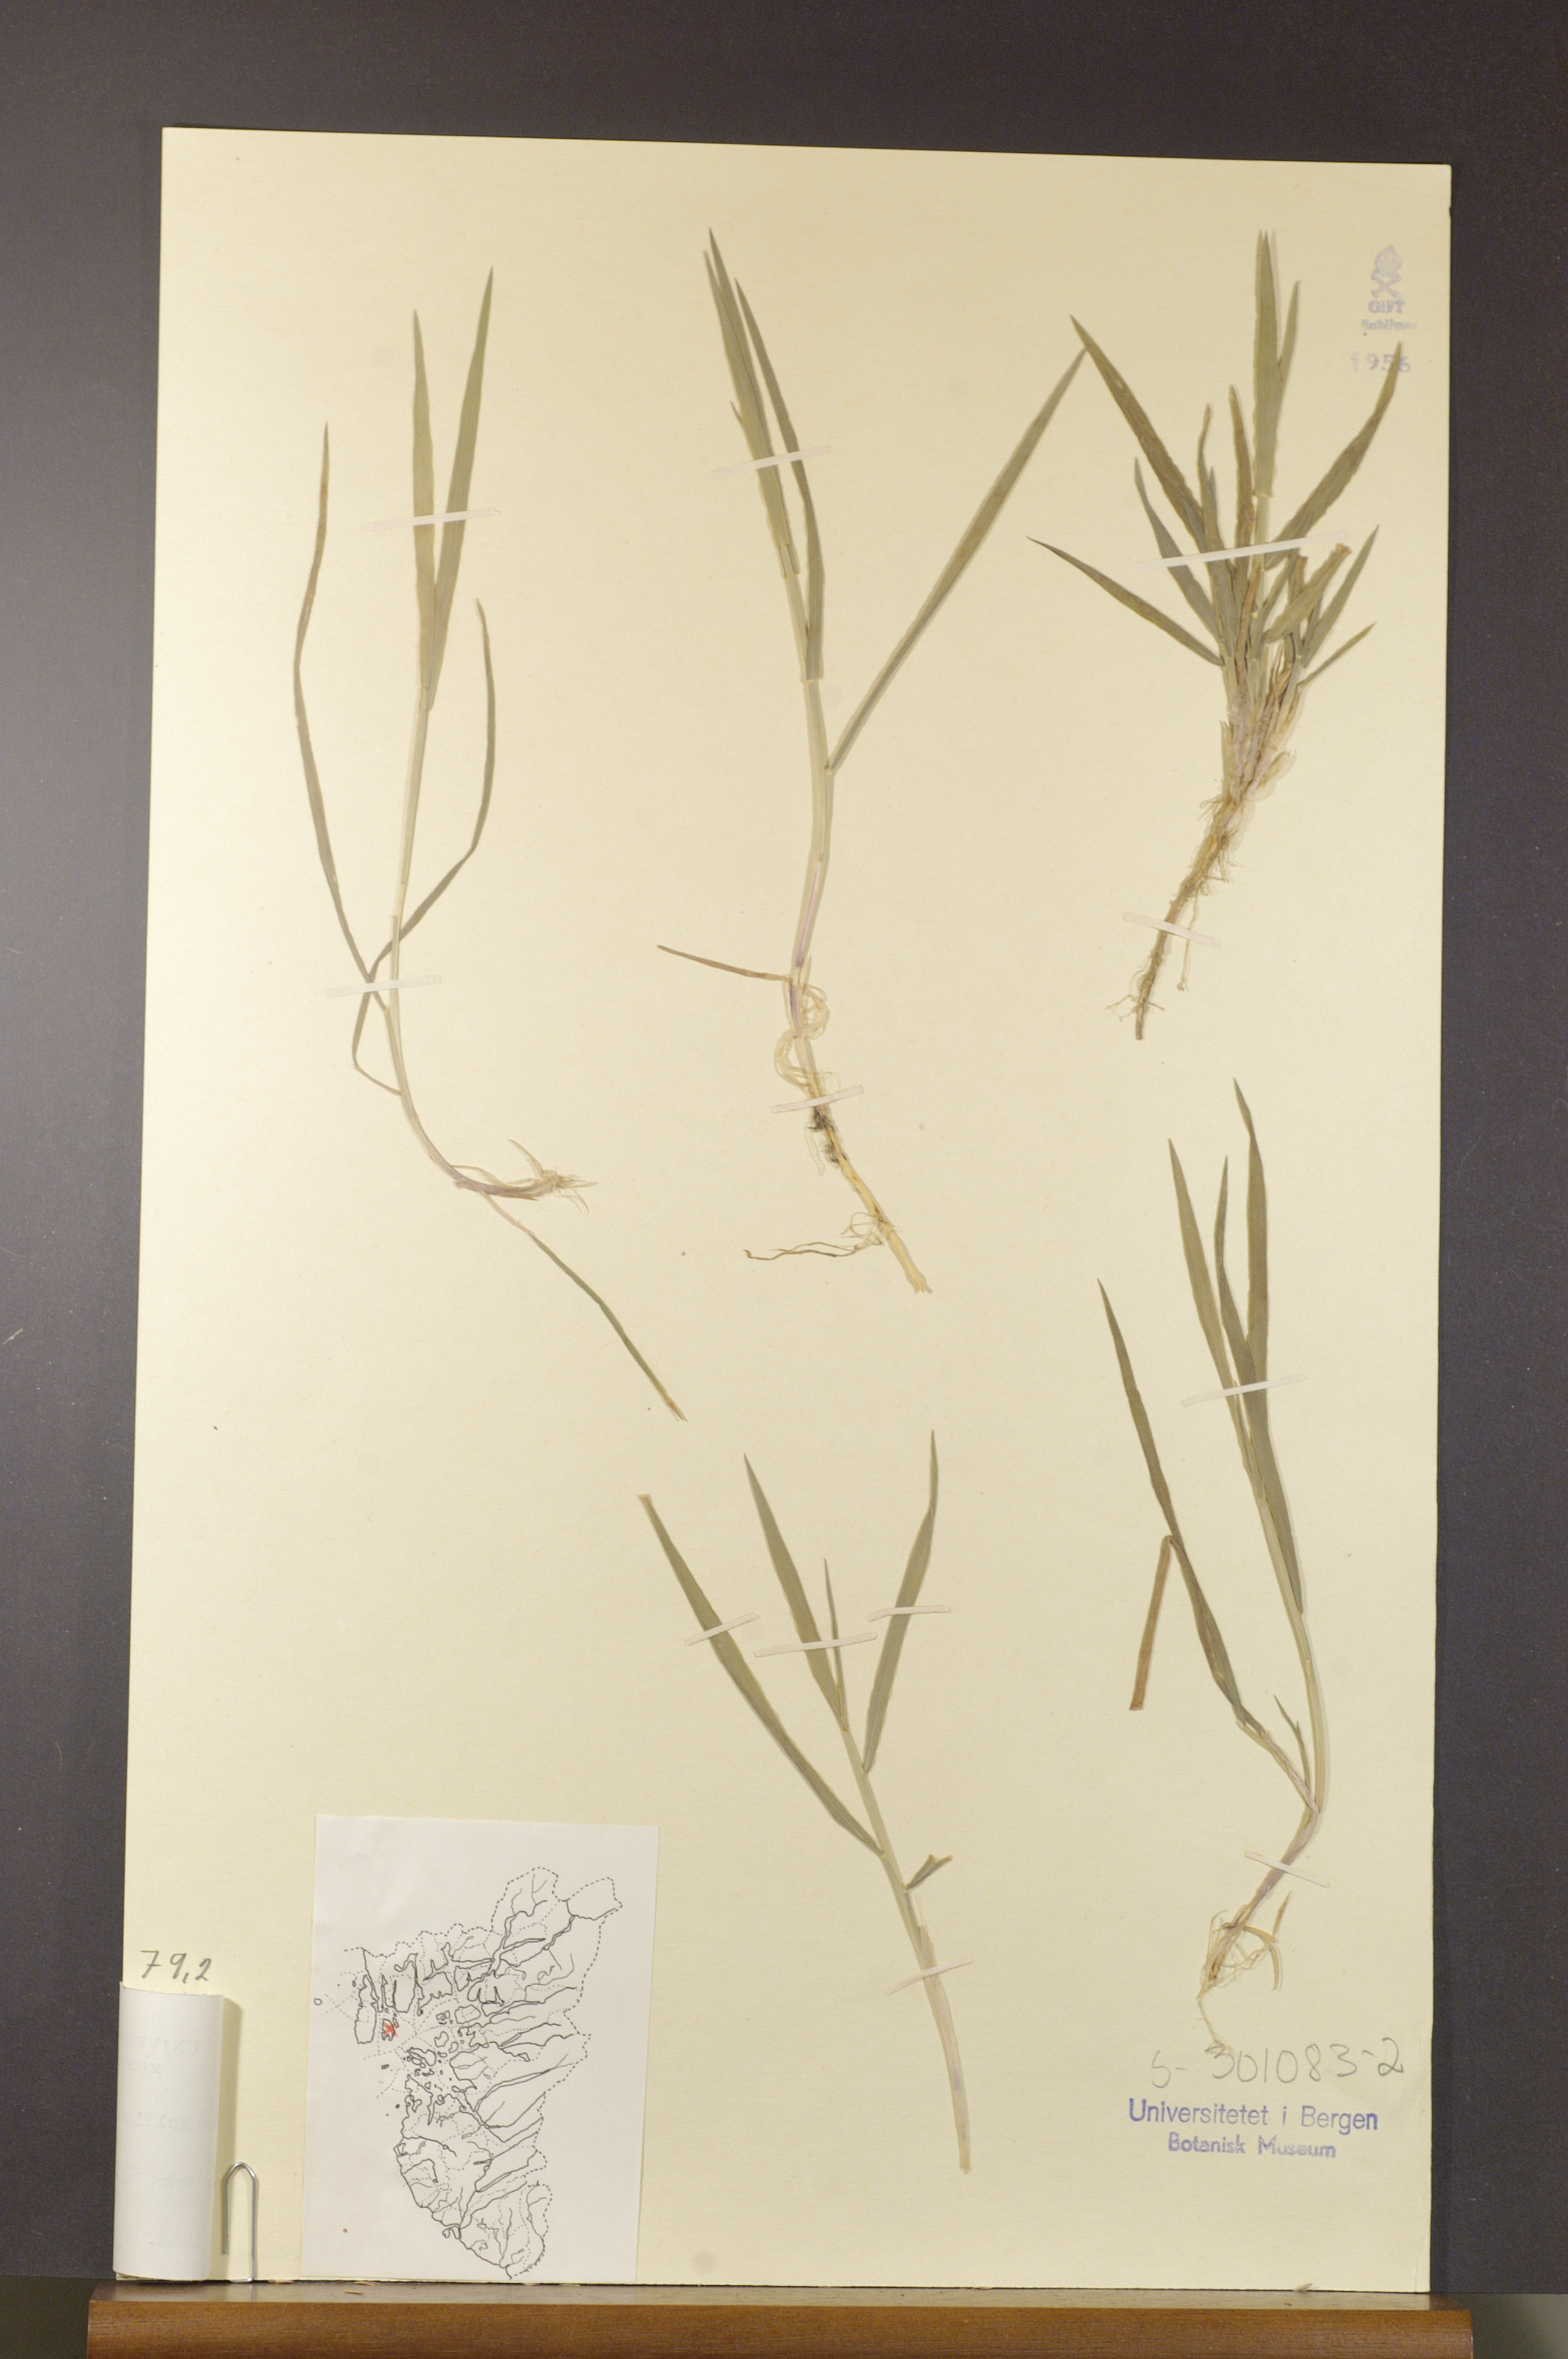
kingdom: Plantae
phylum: Tracheophyta
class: Liliopsida
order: Poales
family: Poaceae
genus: Holcus
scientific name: Holcus mollis
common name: Creeping velvetgrass
